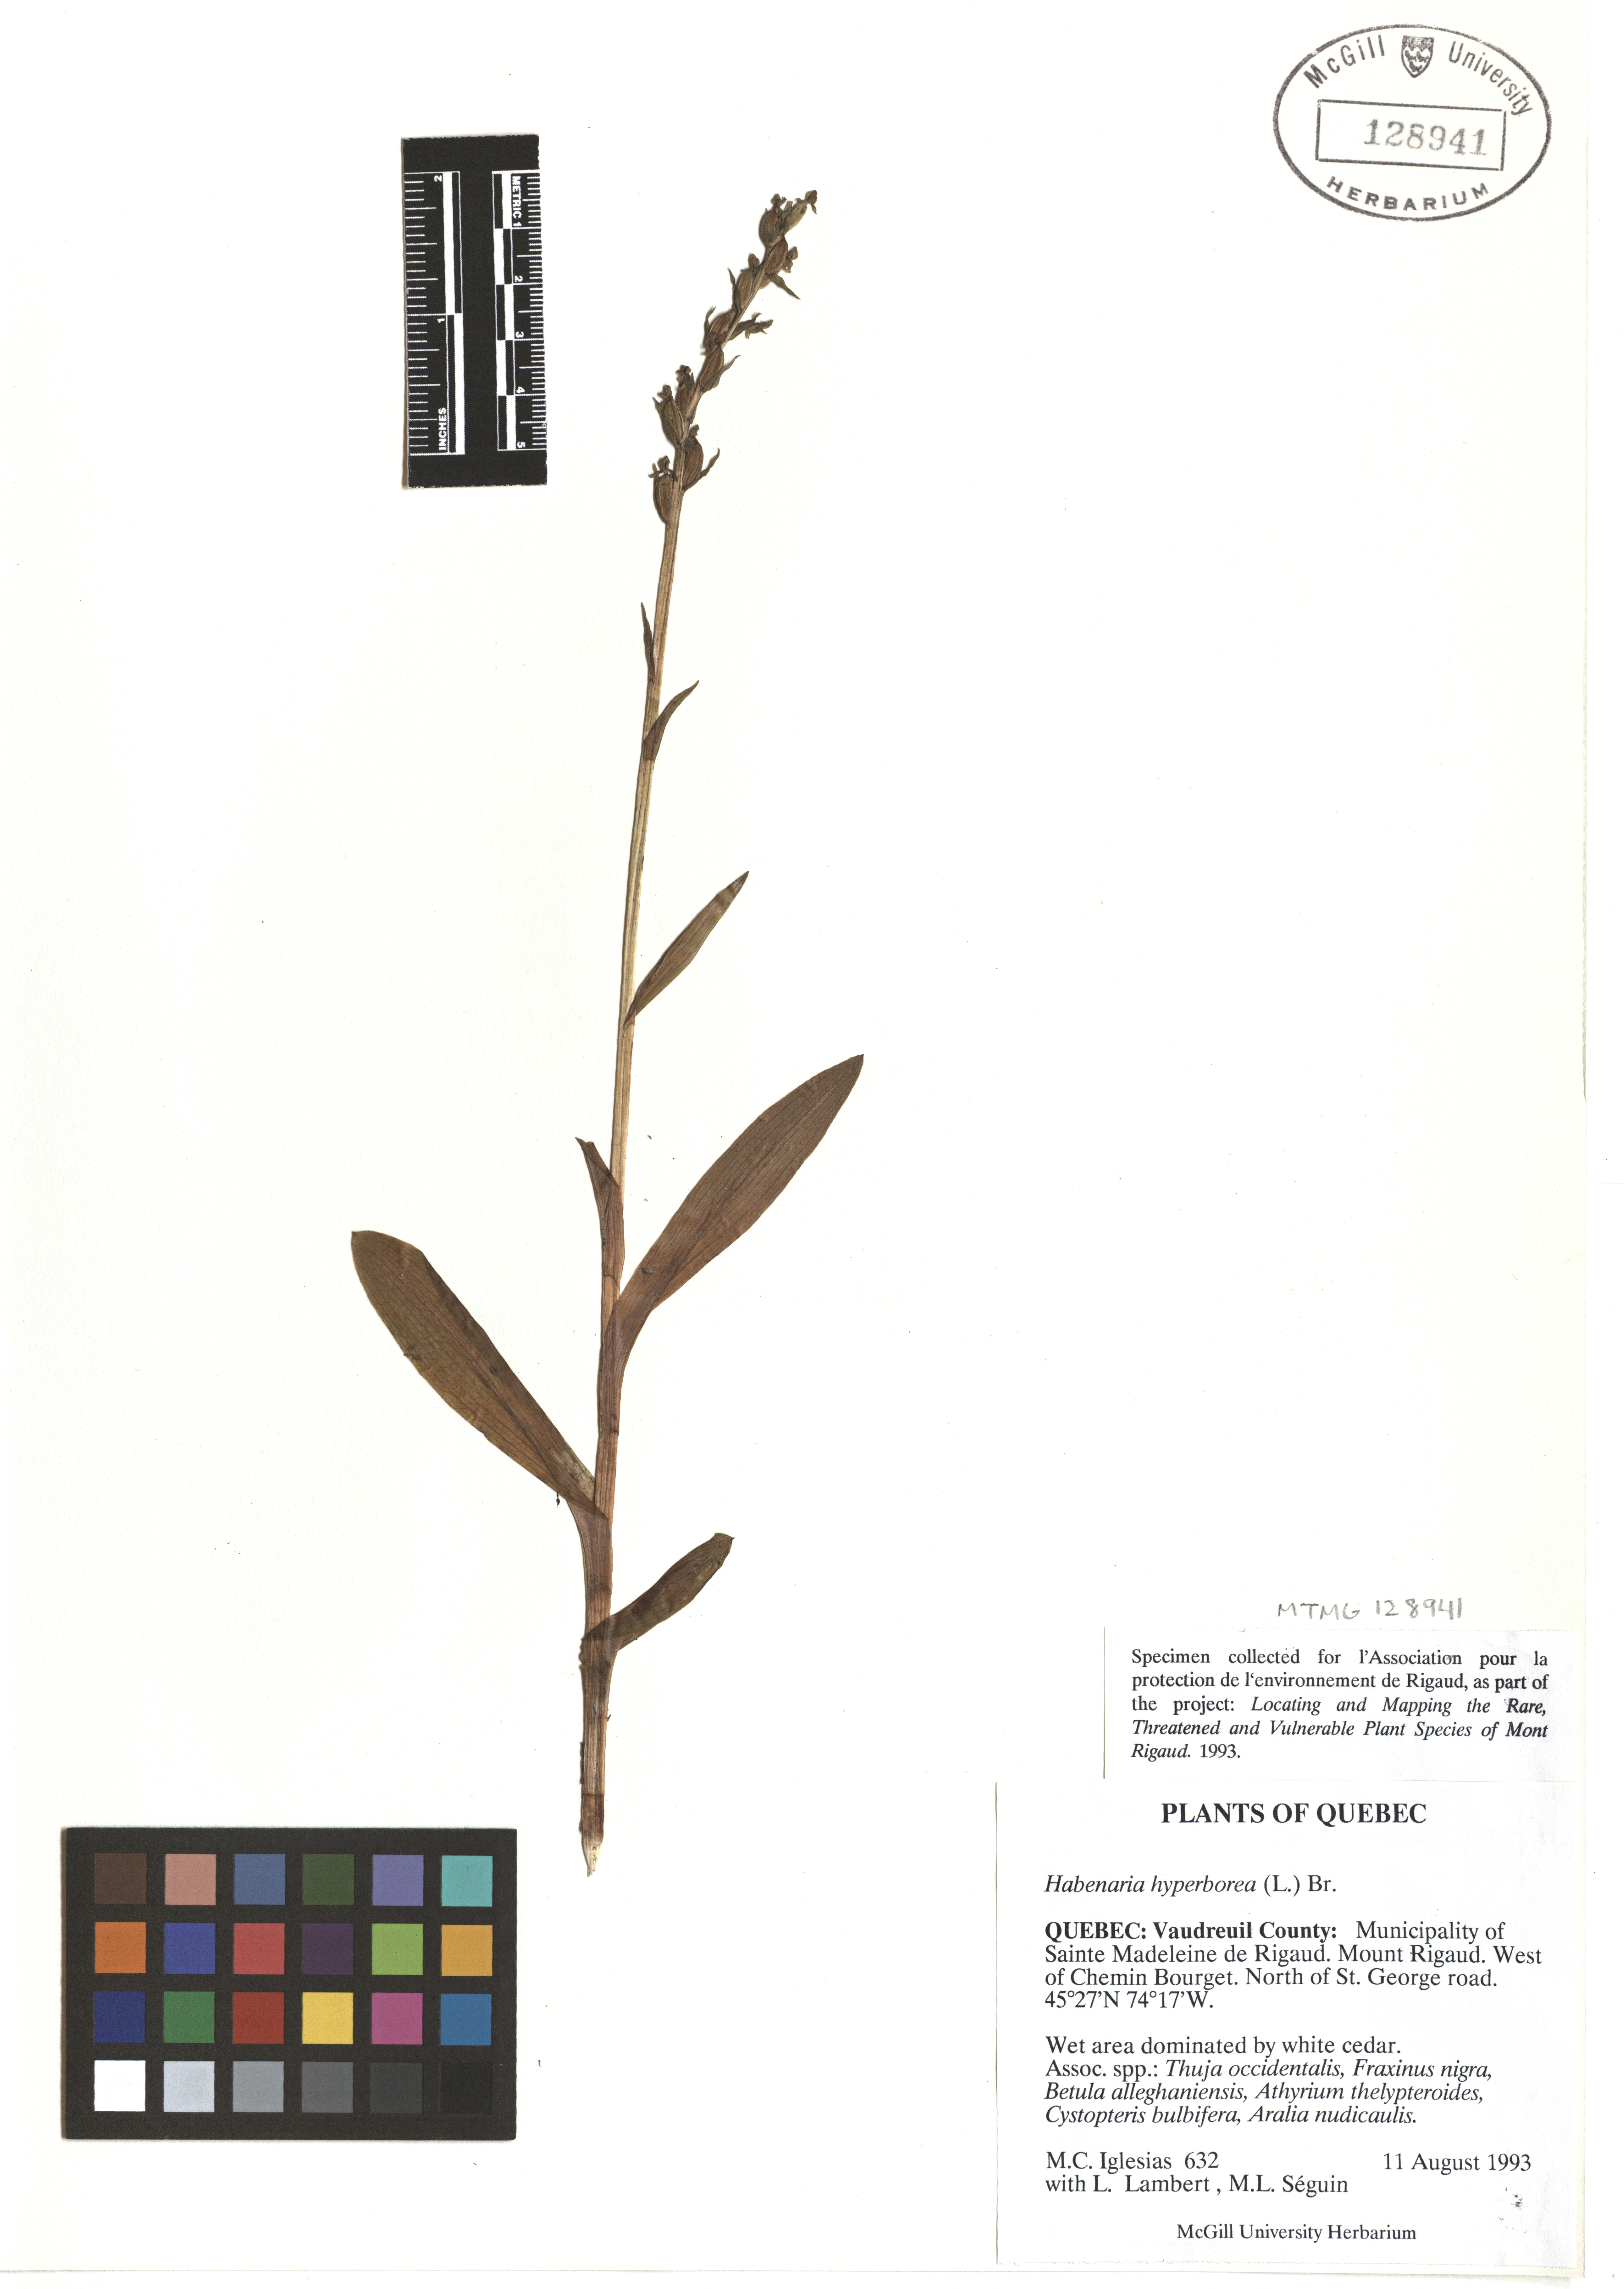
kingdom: Plantae
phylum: Tracheophyta
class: Liliopsida
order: Asparagales
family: Orchidaceae
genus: Platanthera
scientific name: Platanthera hyperborea
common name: Northern green orchid
